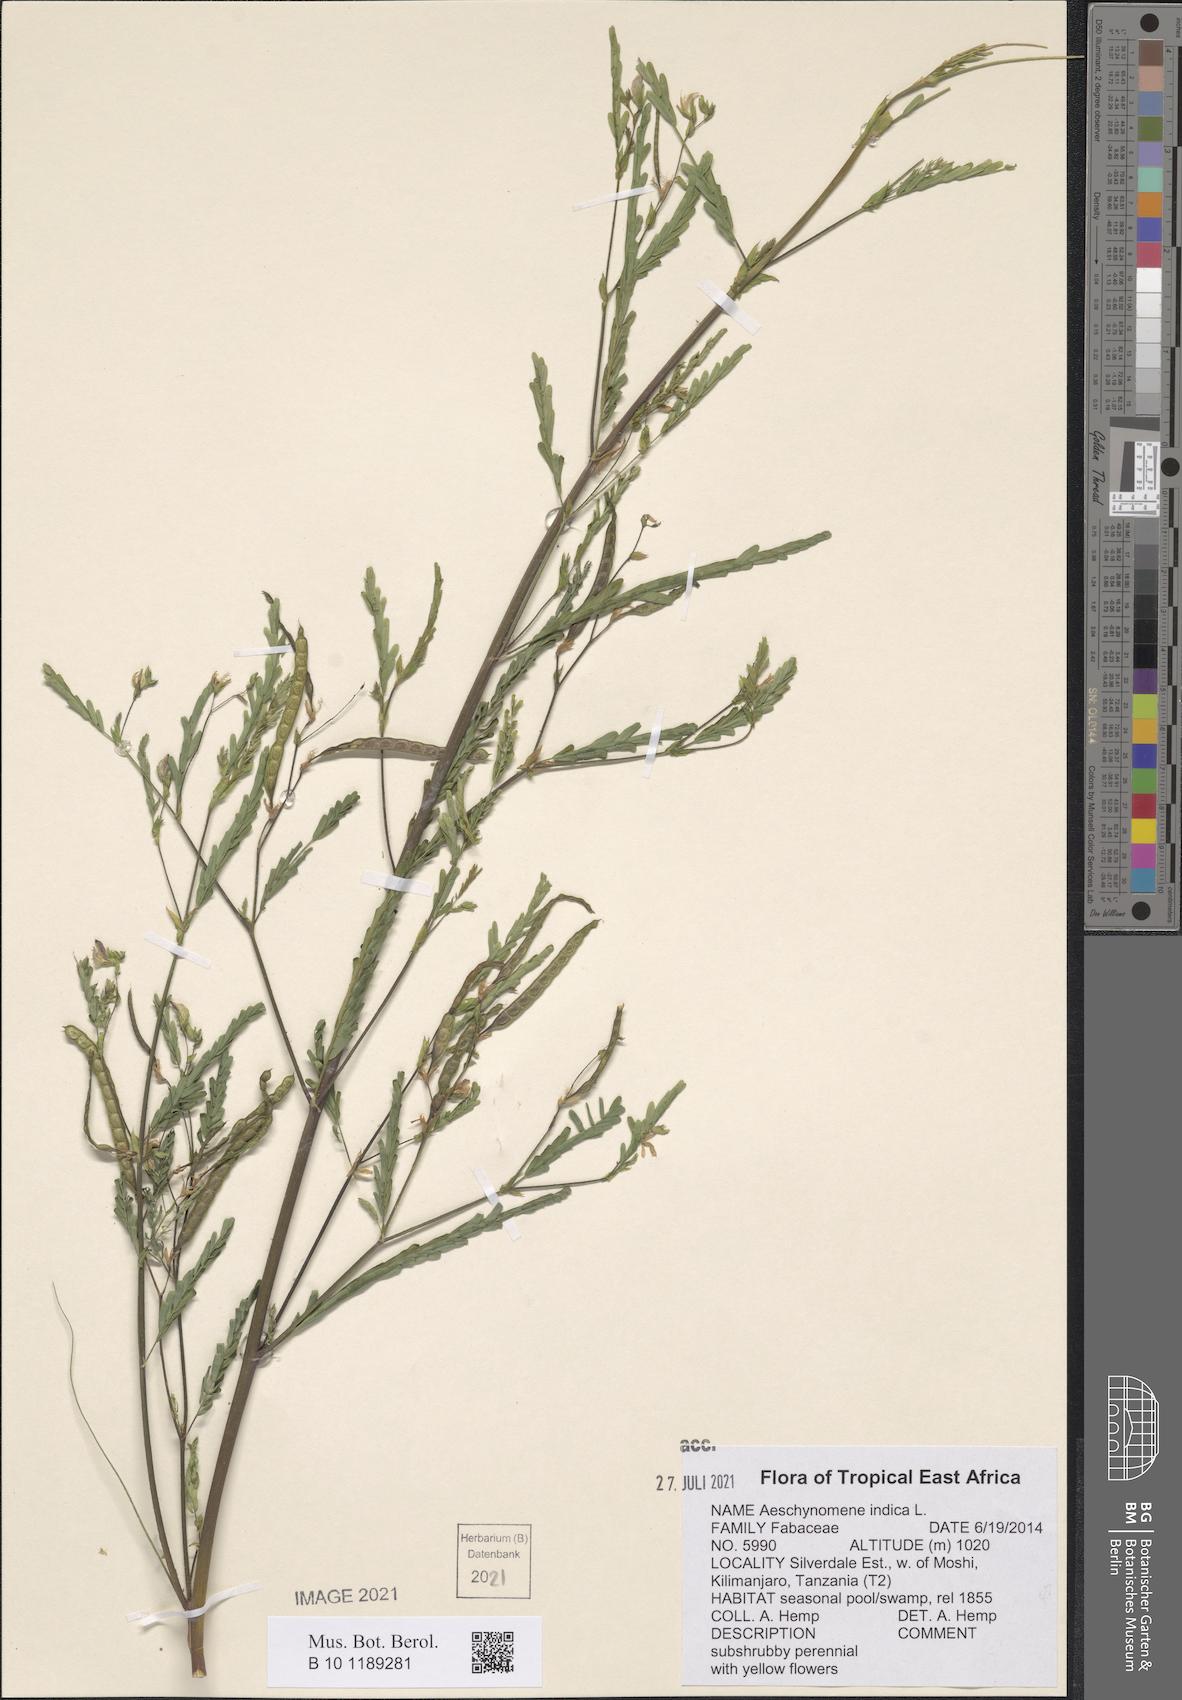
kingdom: Plantae
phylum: Tracheophyta
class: Magnoliopsida
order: Fabales
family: Fabaceae
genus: Aeschynomene
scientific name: Aeschynomene indica
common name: Indian jointvetch
